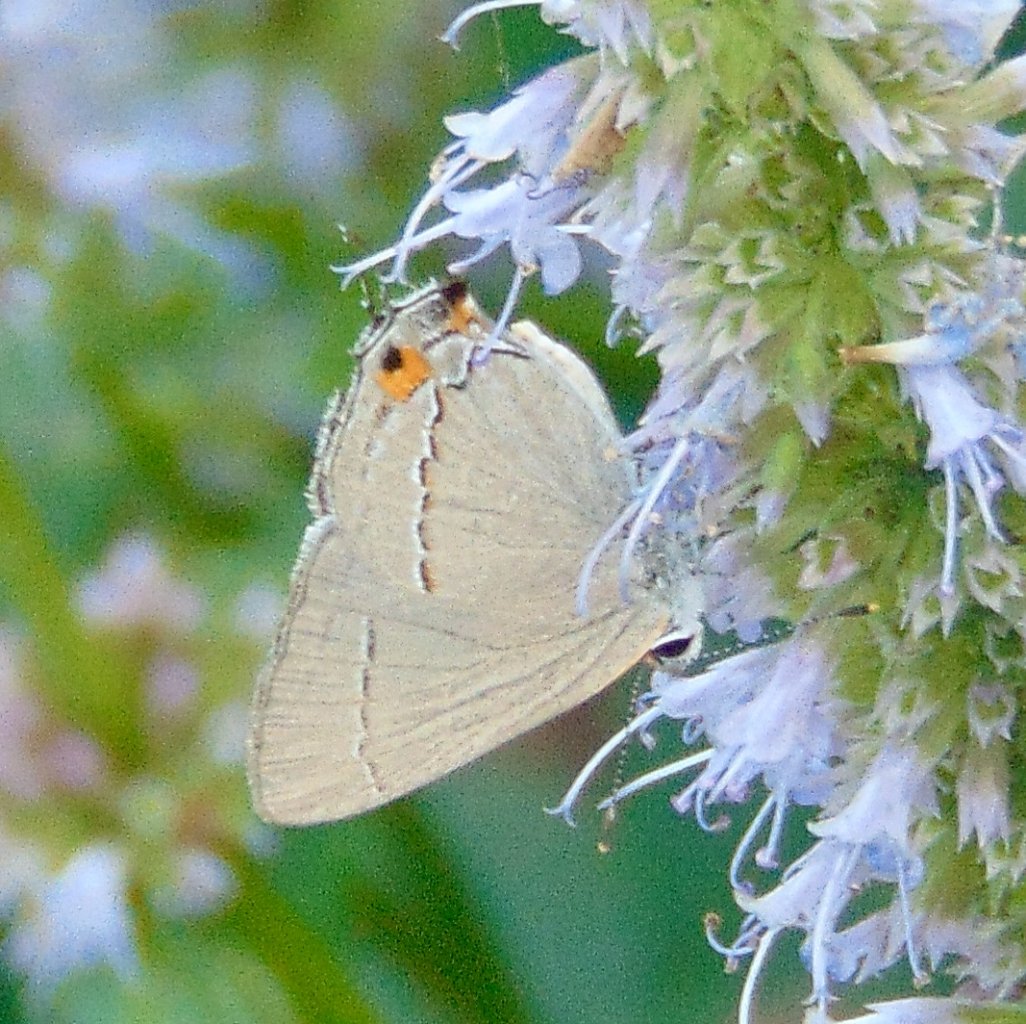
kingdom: Animalia
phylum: Arthropoda
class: Insecta
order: Lepidoptera
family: Lycaenidae
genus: Strymon
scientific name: Strymon melinus
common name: Gray Hairstreak
